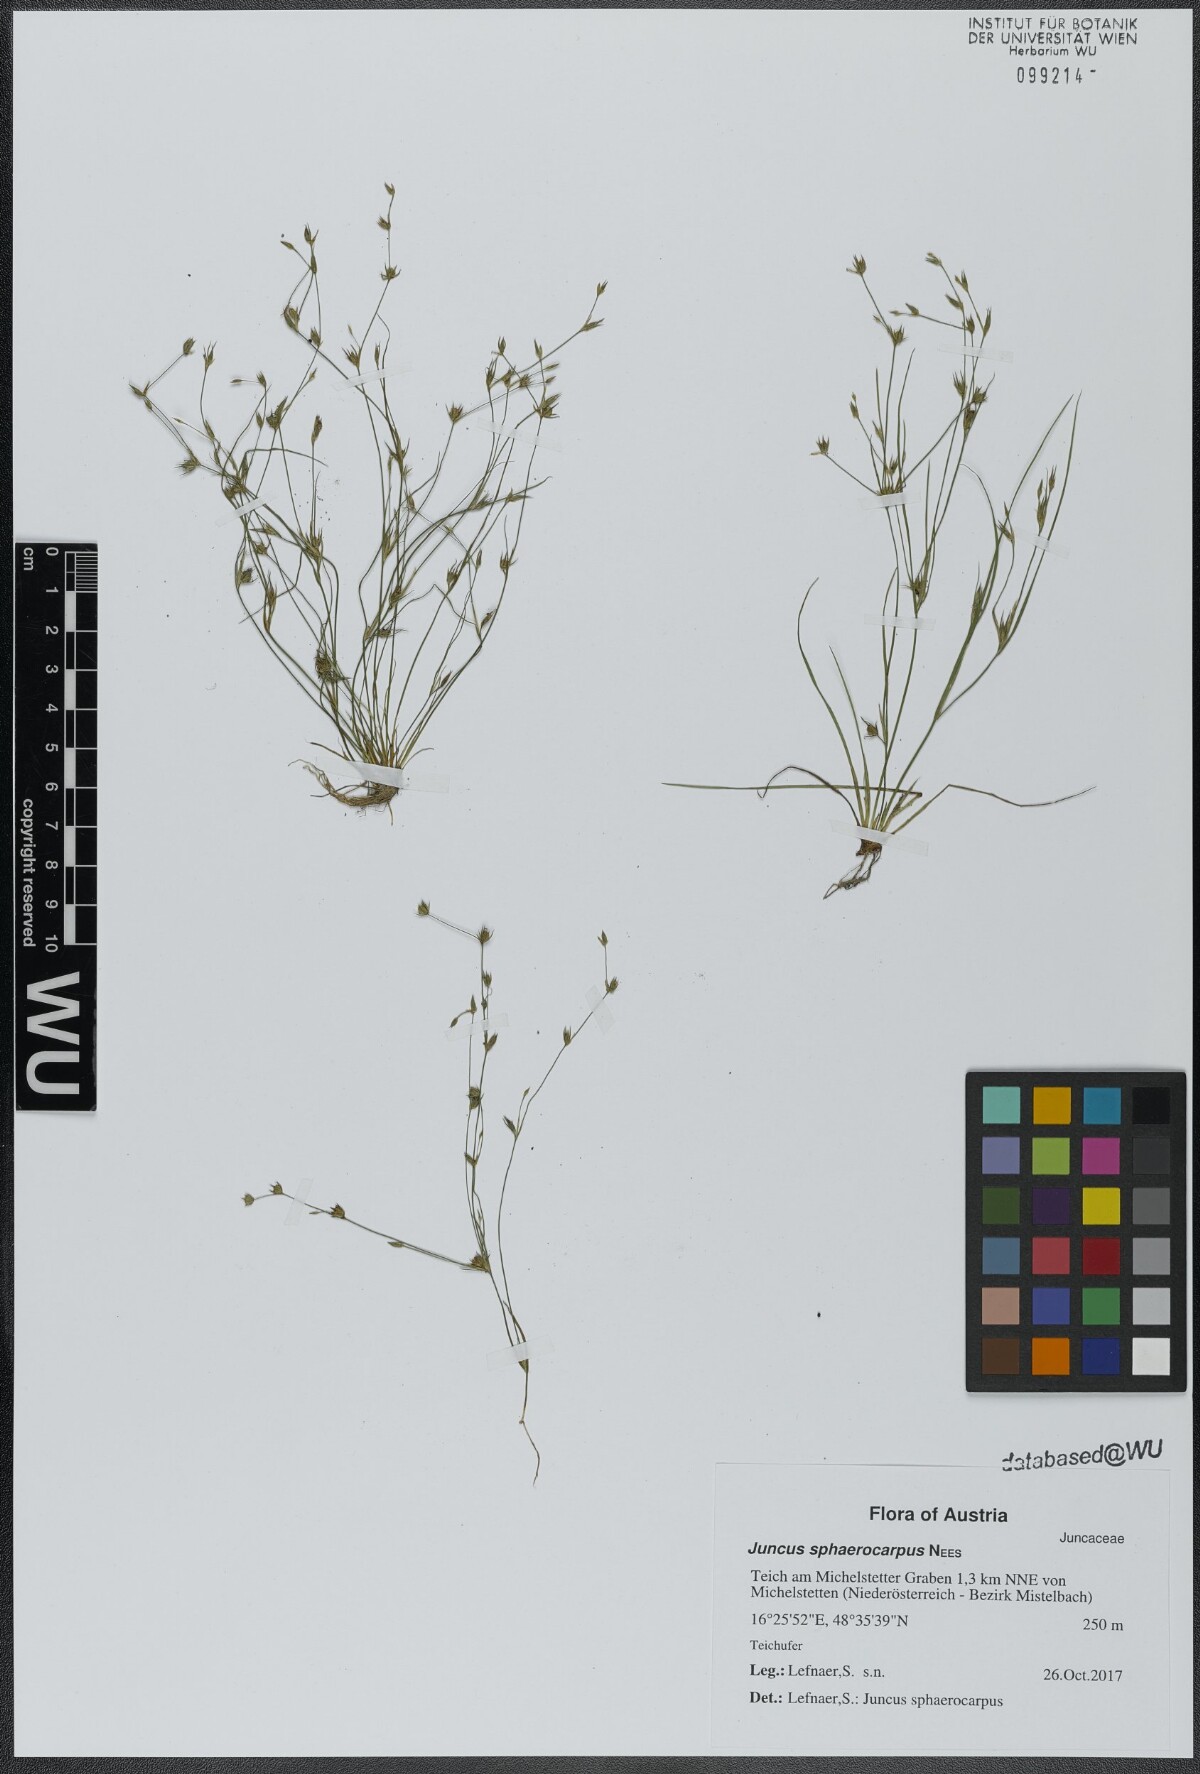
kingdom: Plantae
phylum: Tracheophyta
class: Liliopsida
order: Poales
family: Juncaceae
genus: Juncus
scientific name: Juncus sphaerocarpus
